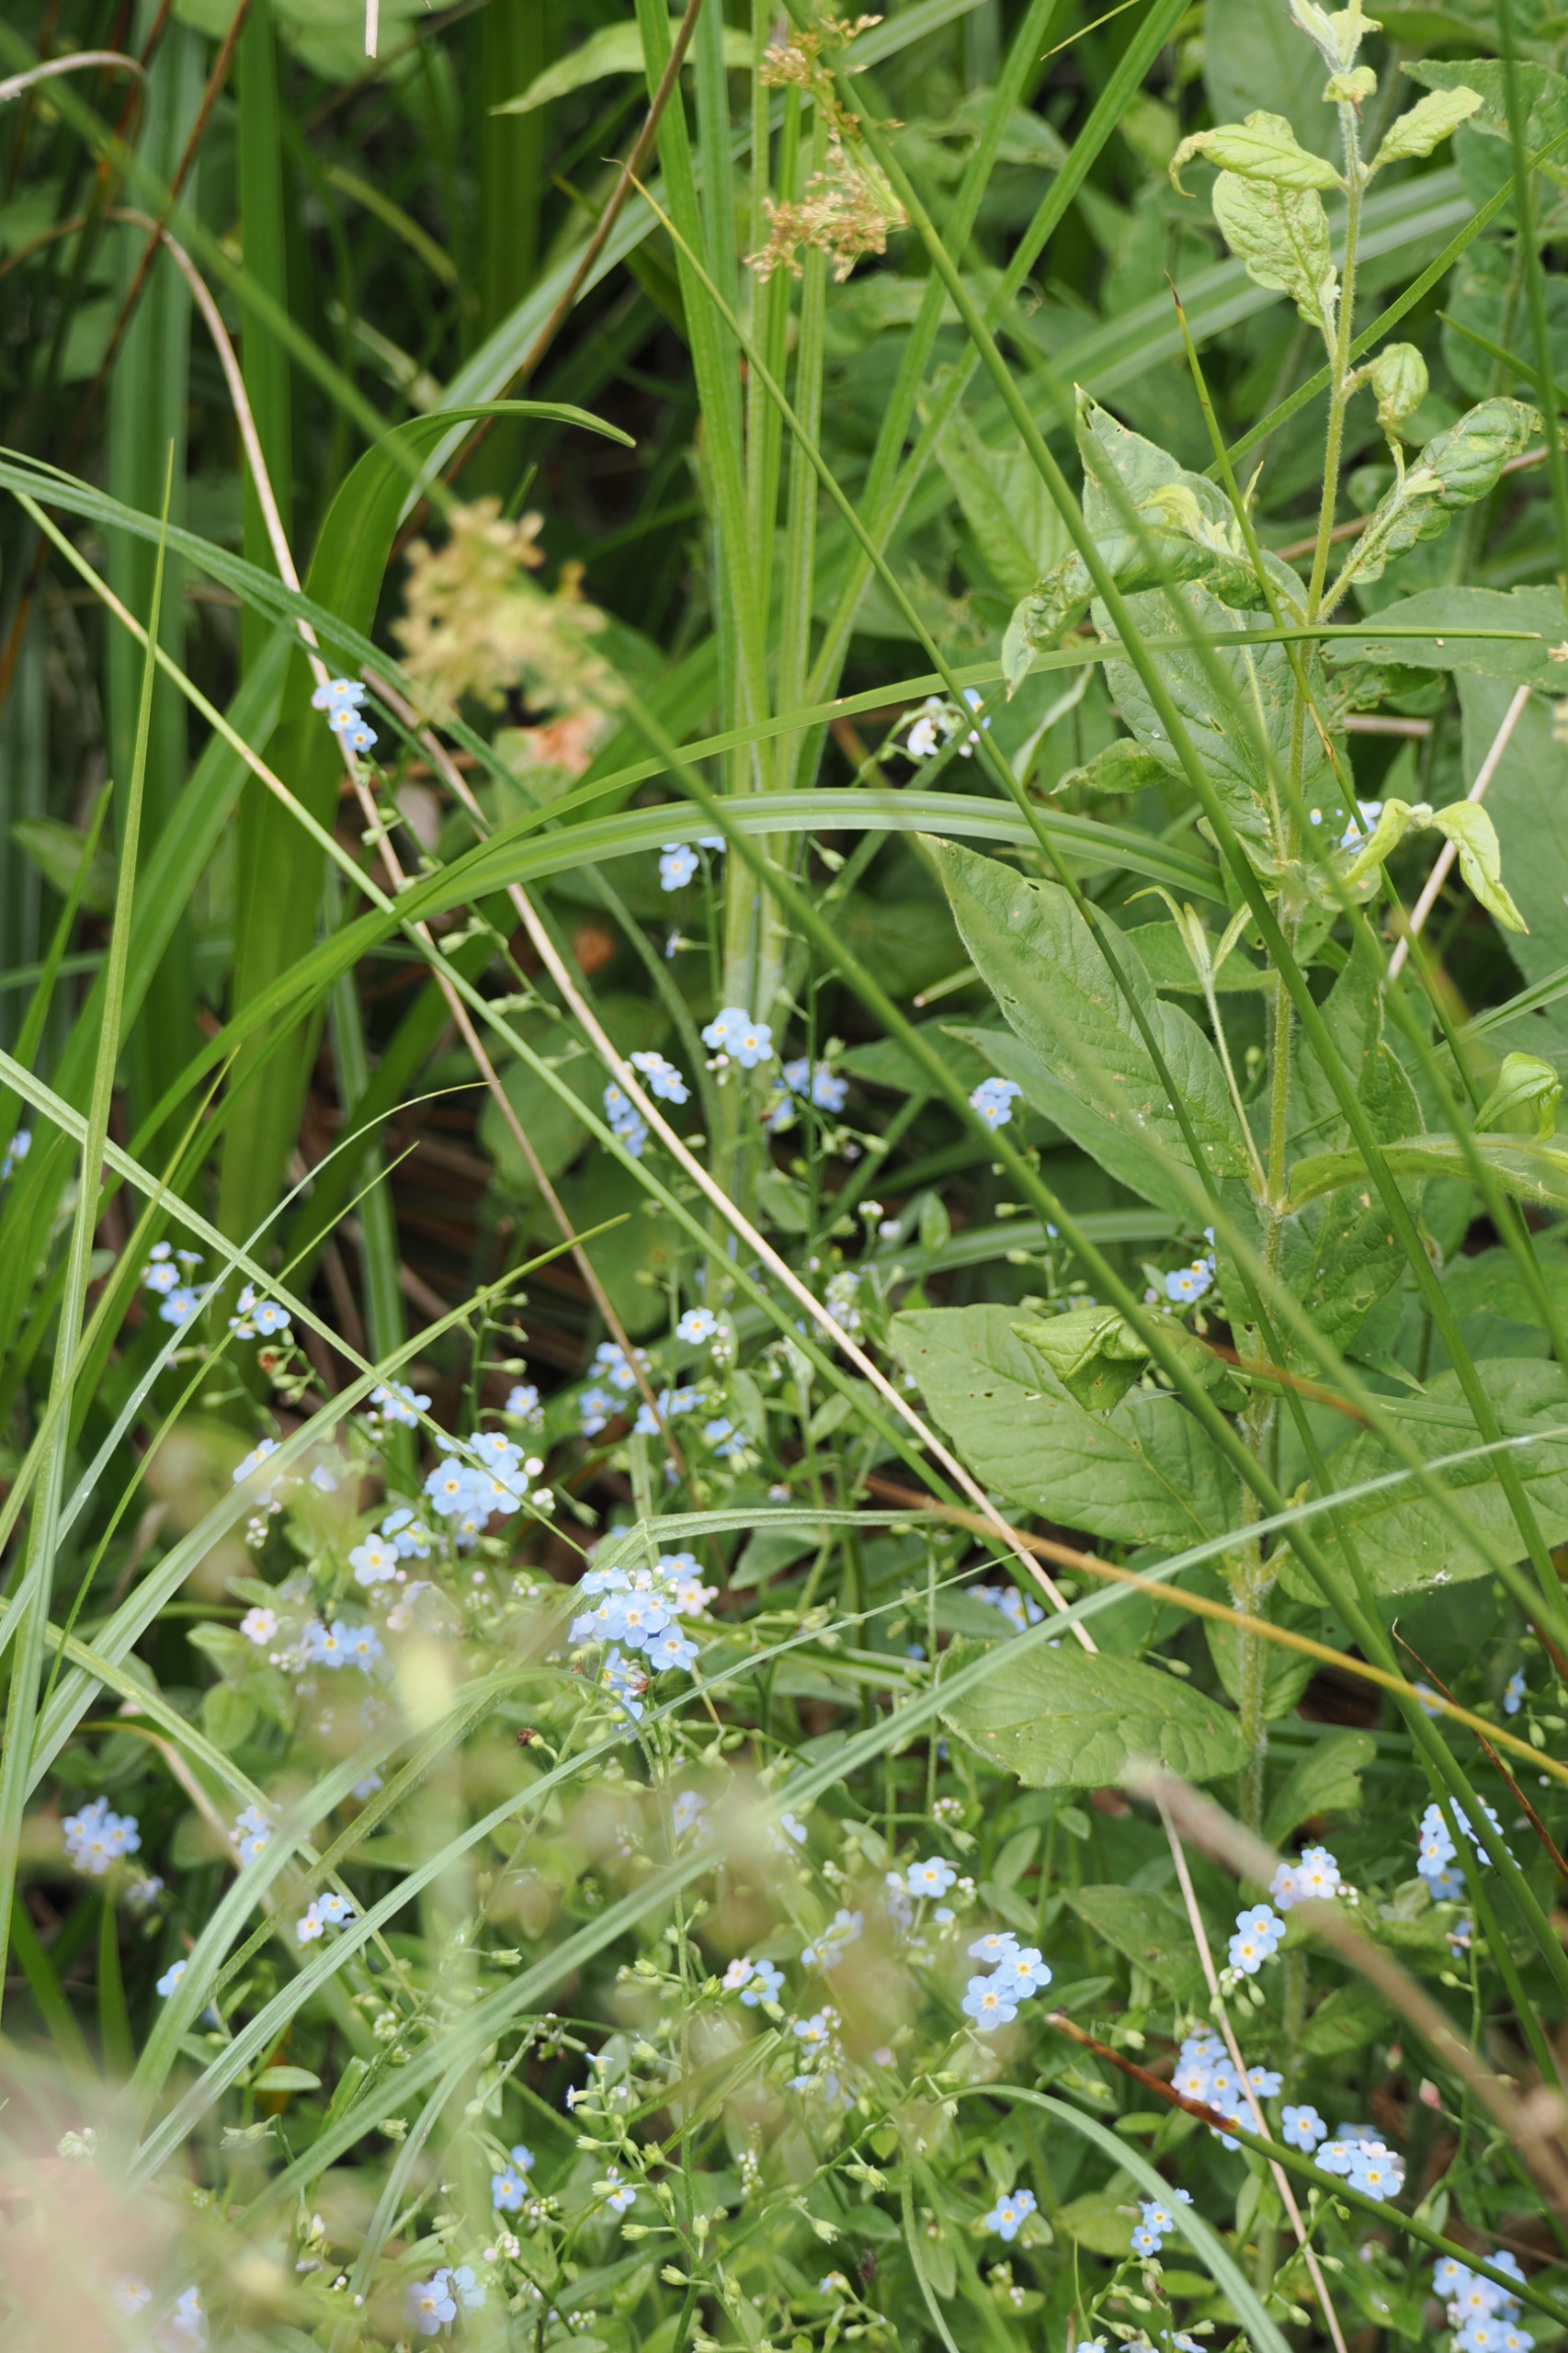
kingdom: Plantae
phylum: Tracheophyta
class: Magnoliopsida
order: Boraginales
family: Boraginaceae
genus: Myosotis
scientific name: Myosotis scorpioides
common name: Eng-forglemmigej
